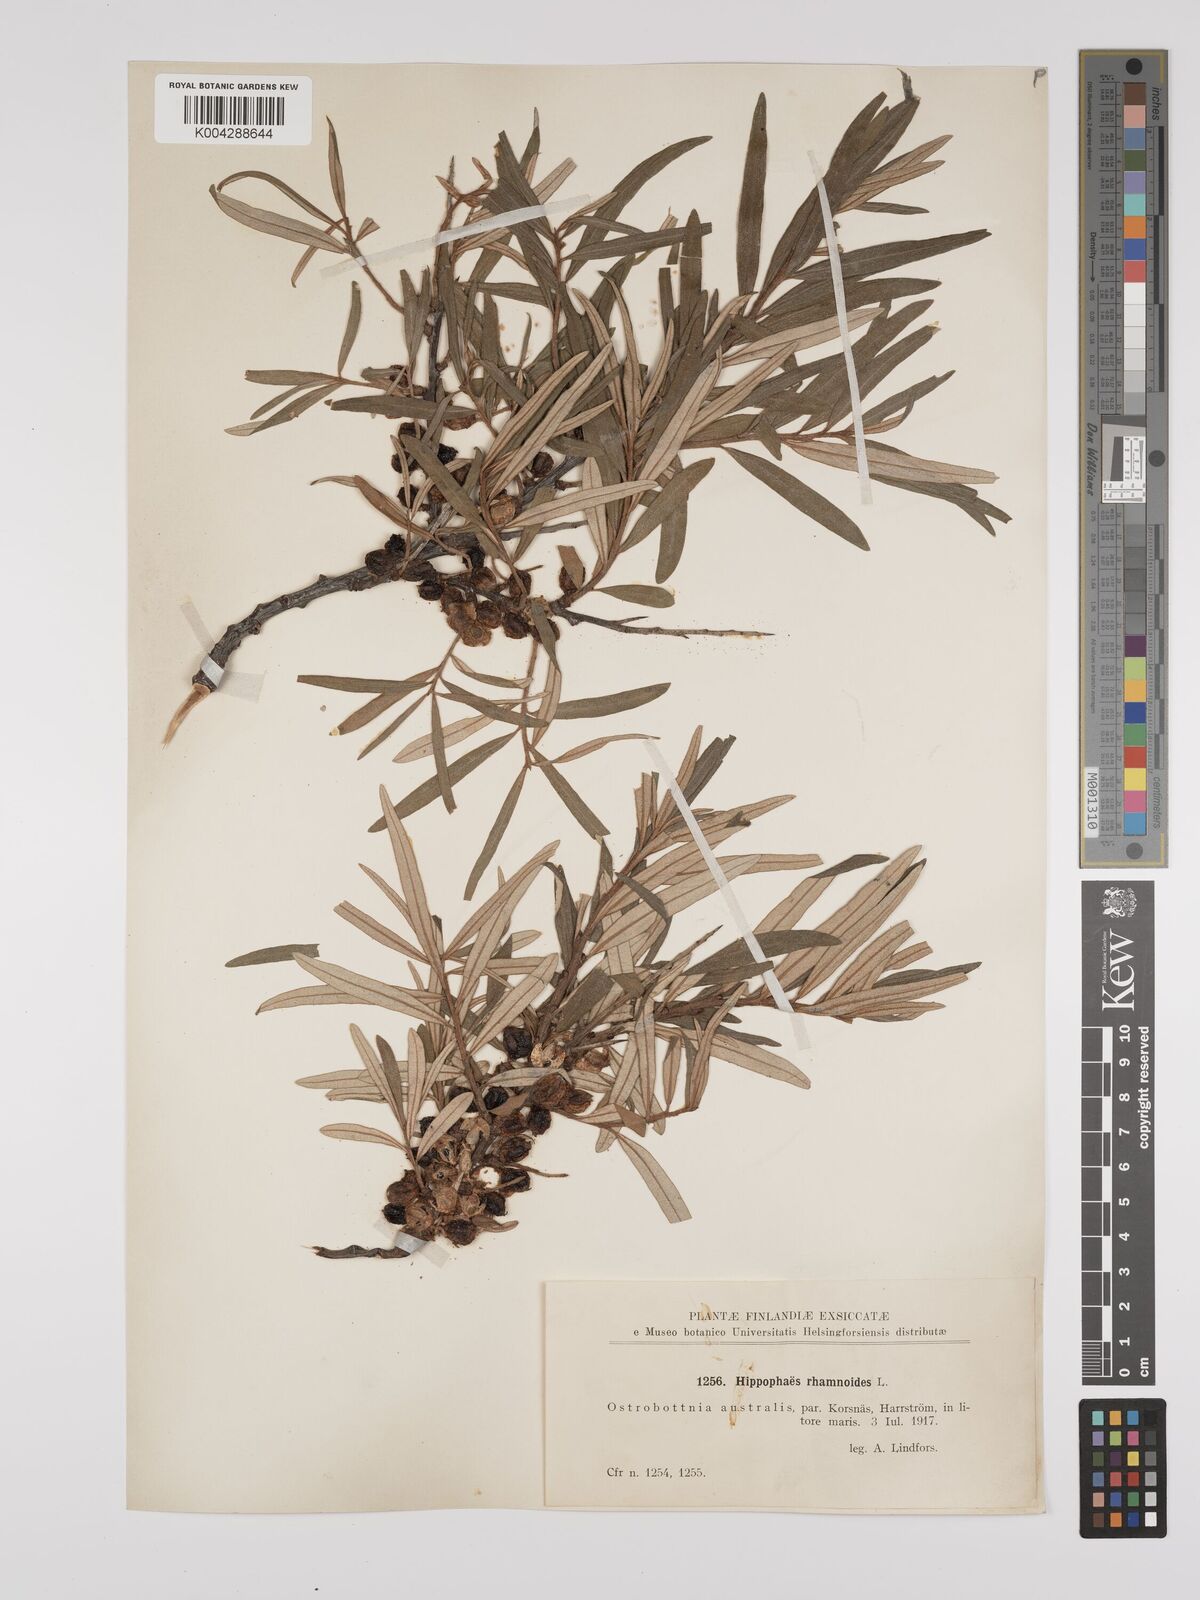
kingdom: Plantae
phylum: Tracheophyta
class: Magnoliopsida
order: Rosales
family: Elaeagnaceae
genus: Hippophae
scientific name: Hippophae rhamnoides
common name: Sea-buckthorn
